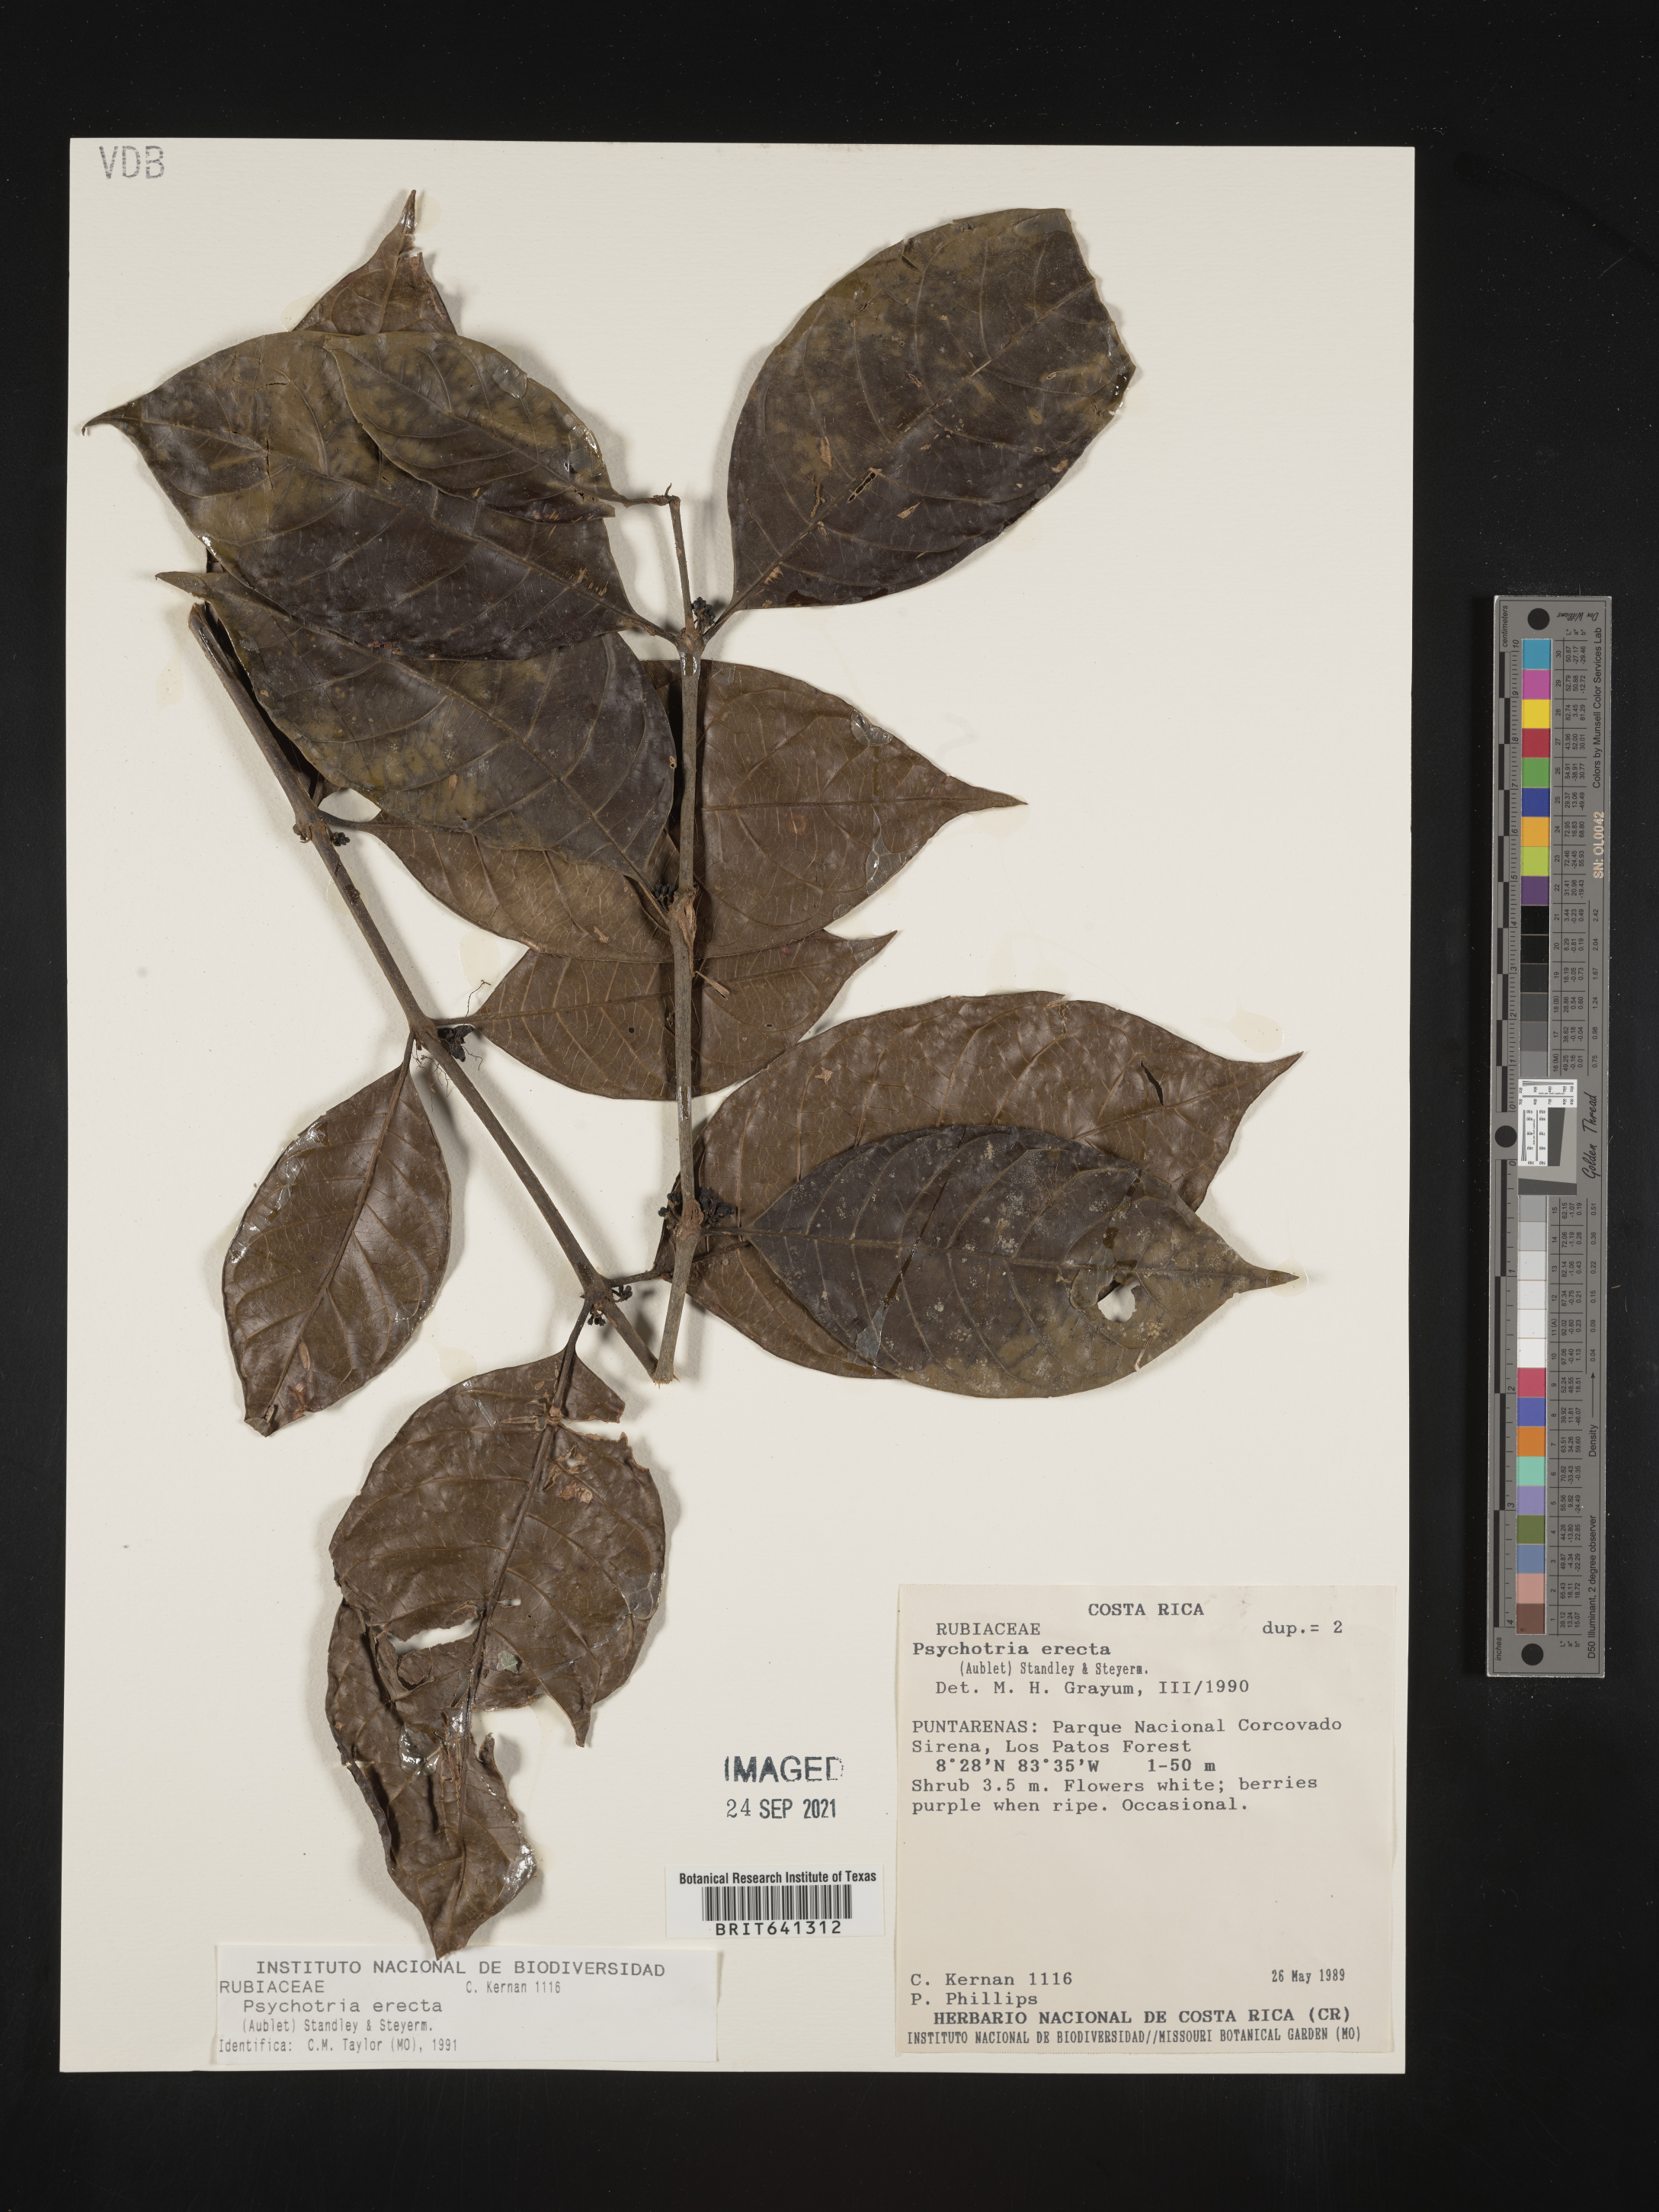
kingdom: Plantae
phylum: Tracheophyta
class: Magnoliopsida
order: Gentianales
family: Rubiaceae
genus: Psychotria
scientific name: Psychotria
